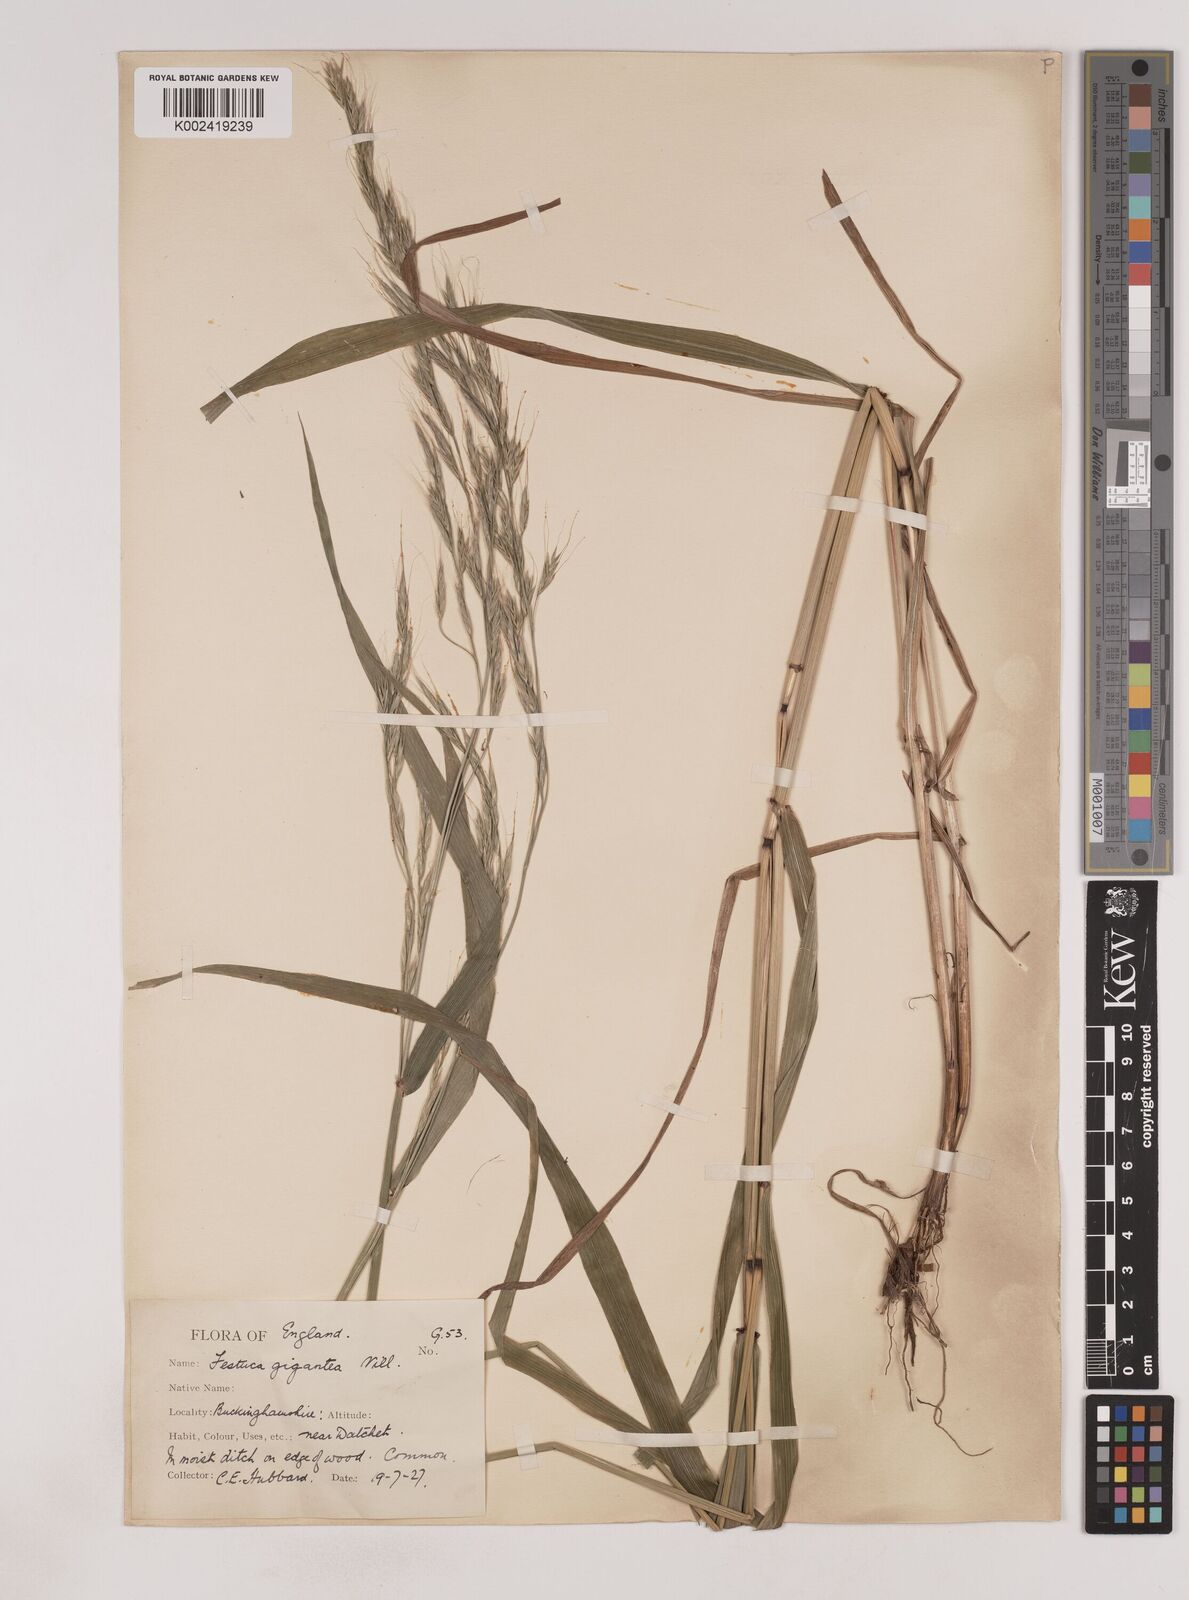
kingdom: Plantae
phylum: Tracheophyta
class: Liliopsida
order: Poales
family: Poaceae
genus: Lolium
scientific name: Lolium giganteum
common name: Giant fescue
